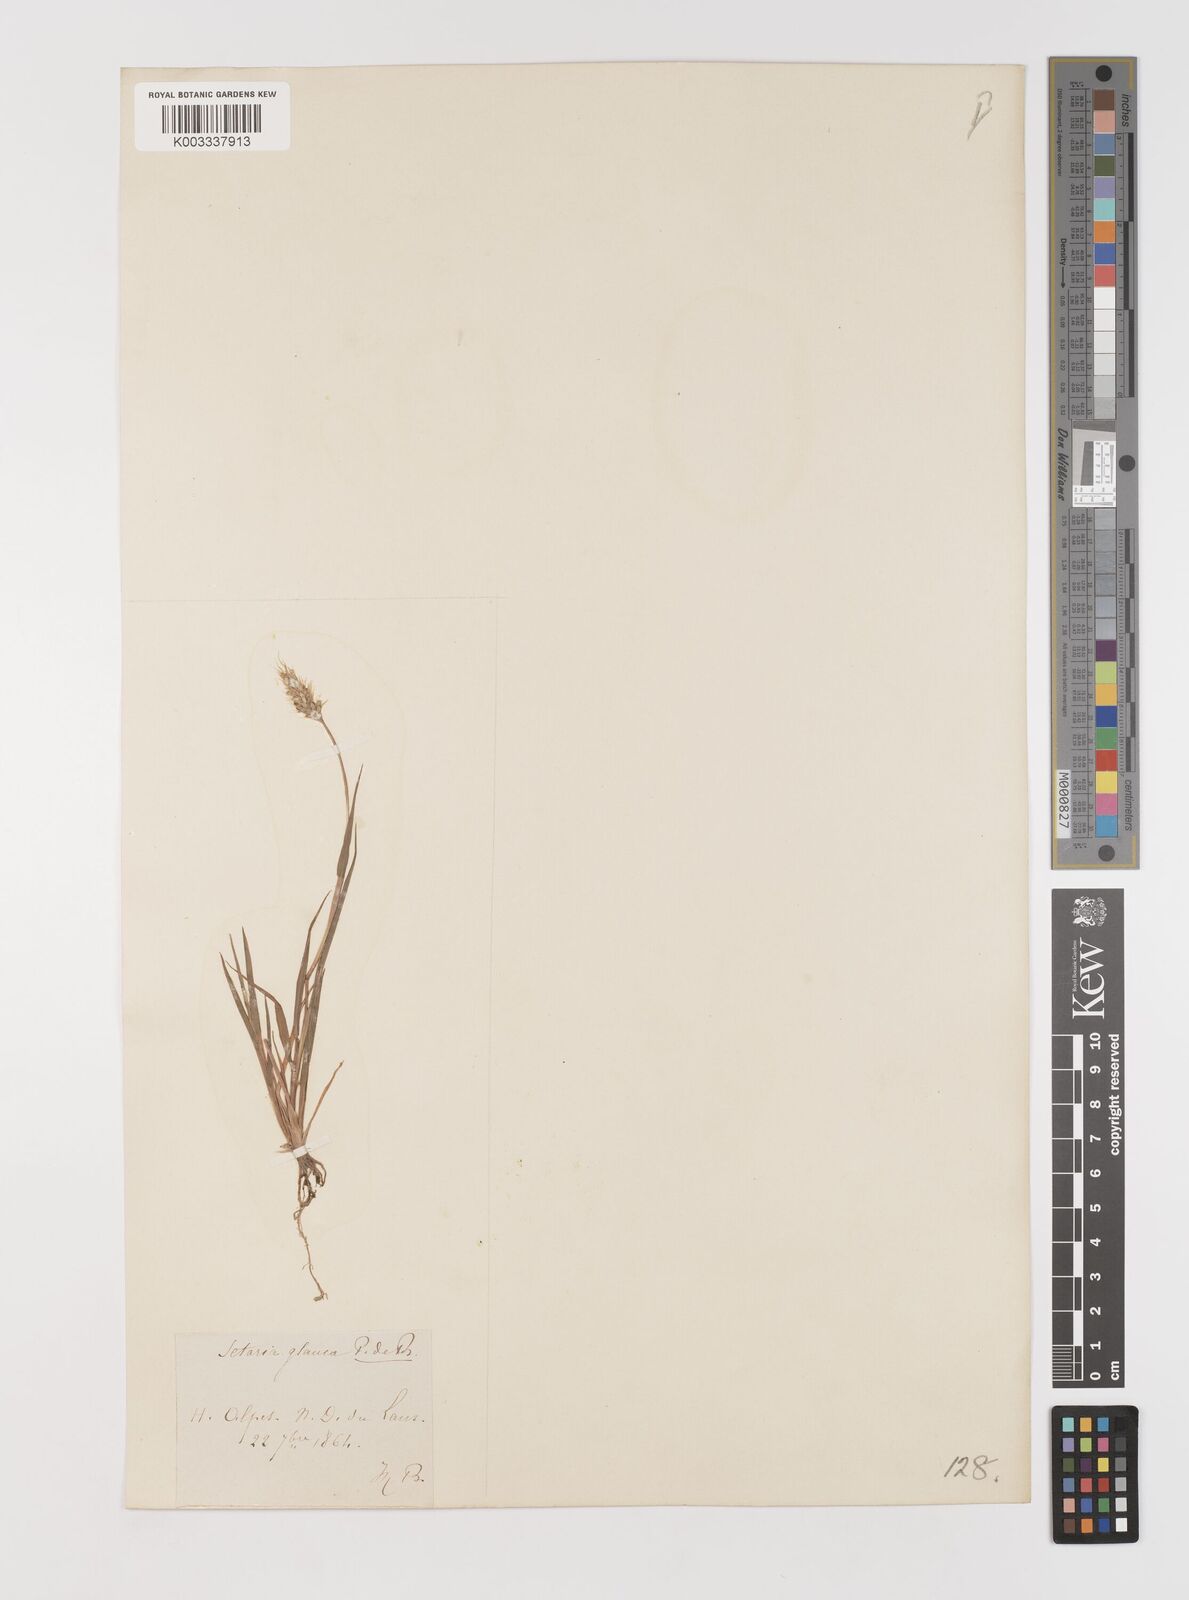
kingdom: Plantae
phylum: Tracheophyta
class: Liliopsida
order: Poales
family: Poaceae
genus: Setaria
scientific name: Setaria viridis
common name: Green bristlegrass
